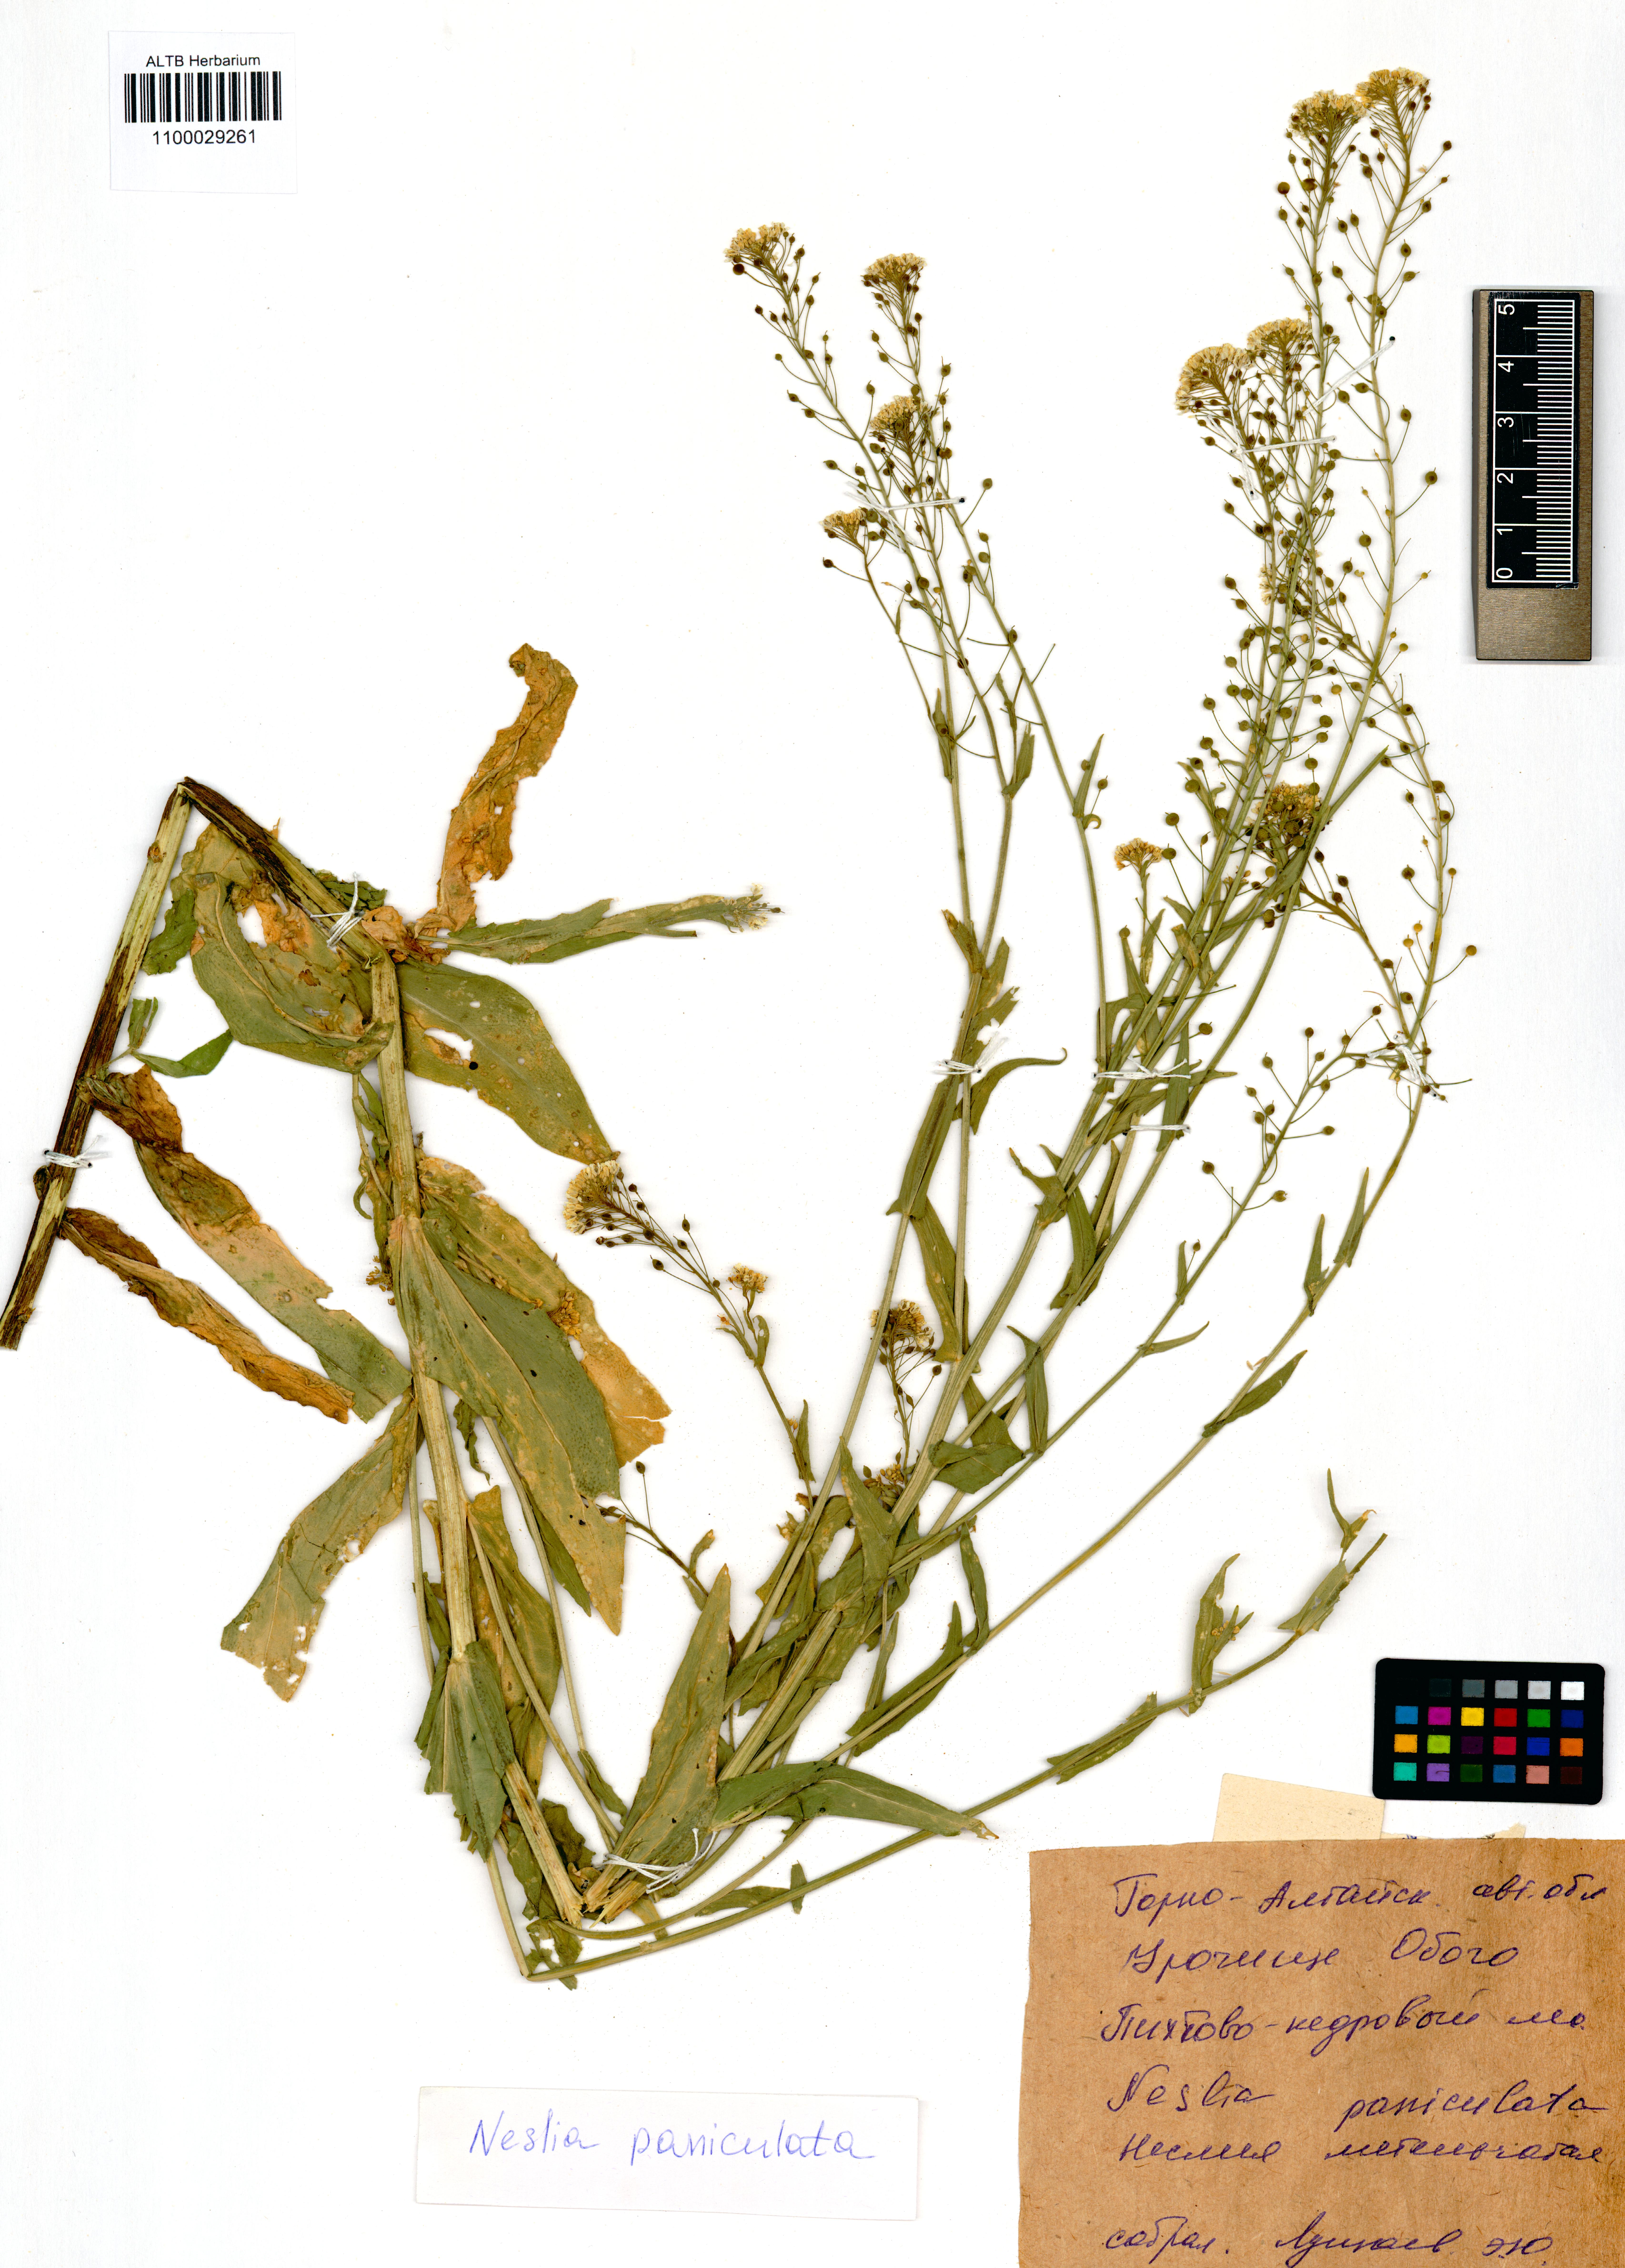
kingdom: Plantae
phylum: Tracheophyta
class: Magnoliopsida
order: Brassicales
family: Brassicaceae
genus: Neslia
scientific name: Neslia paniculata
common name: Ball mustard
